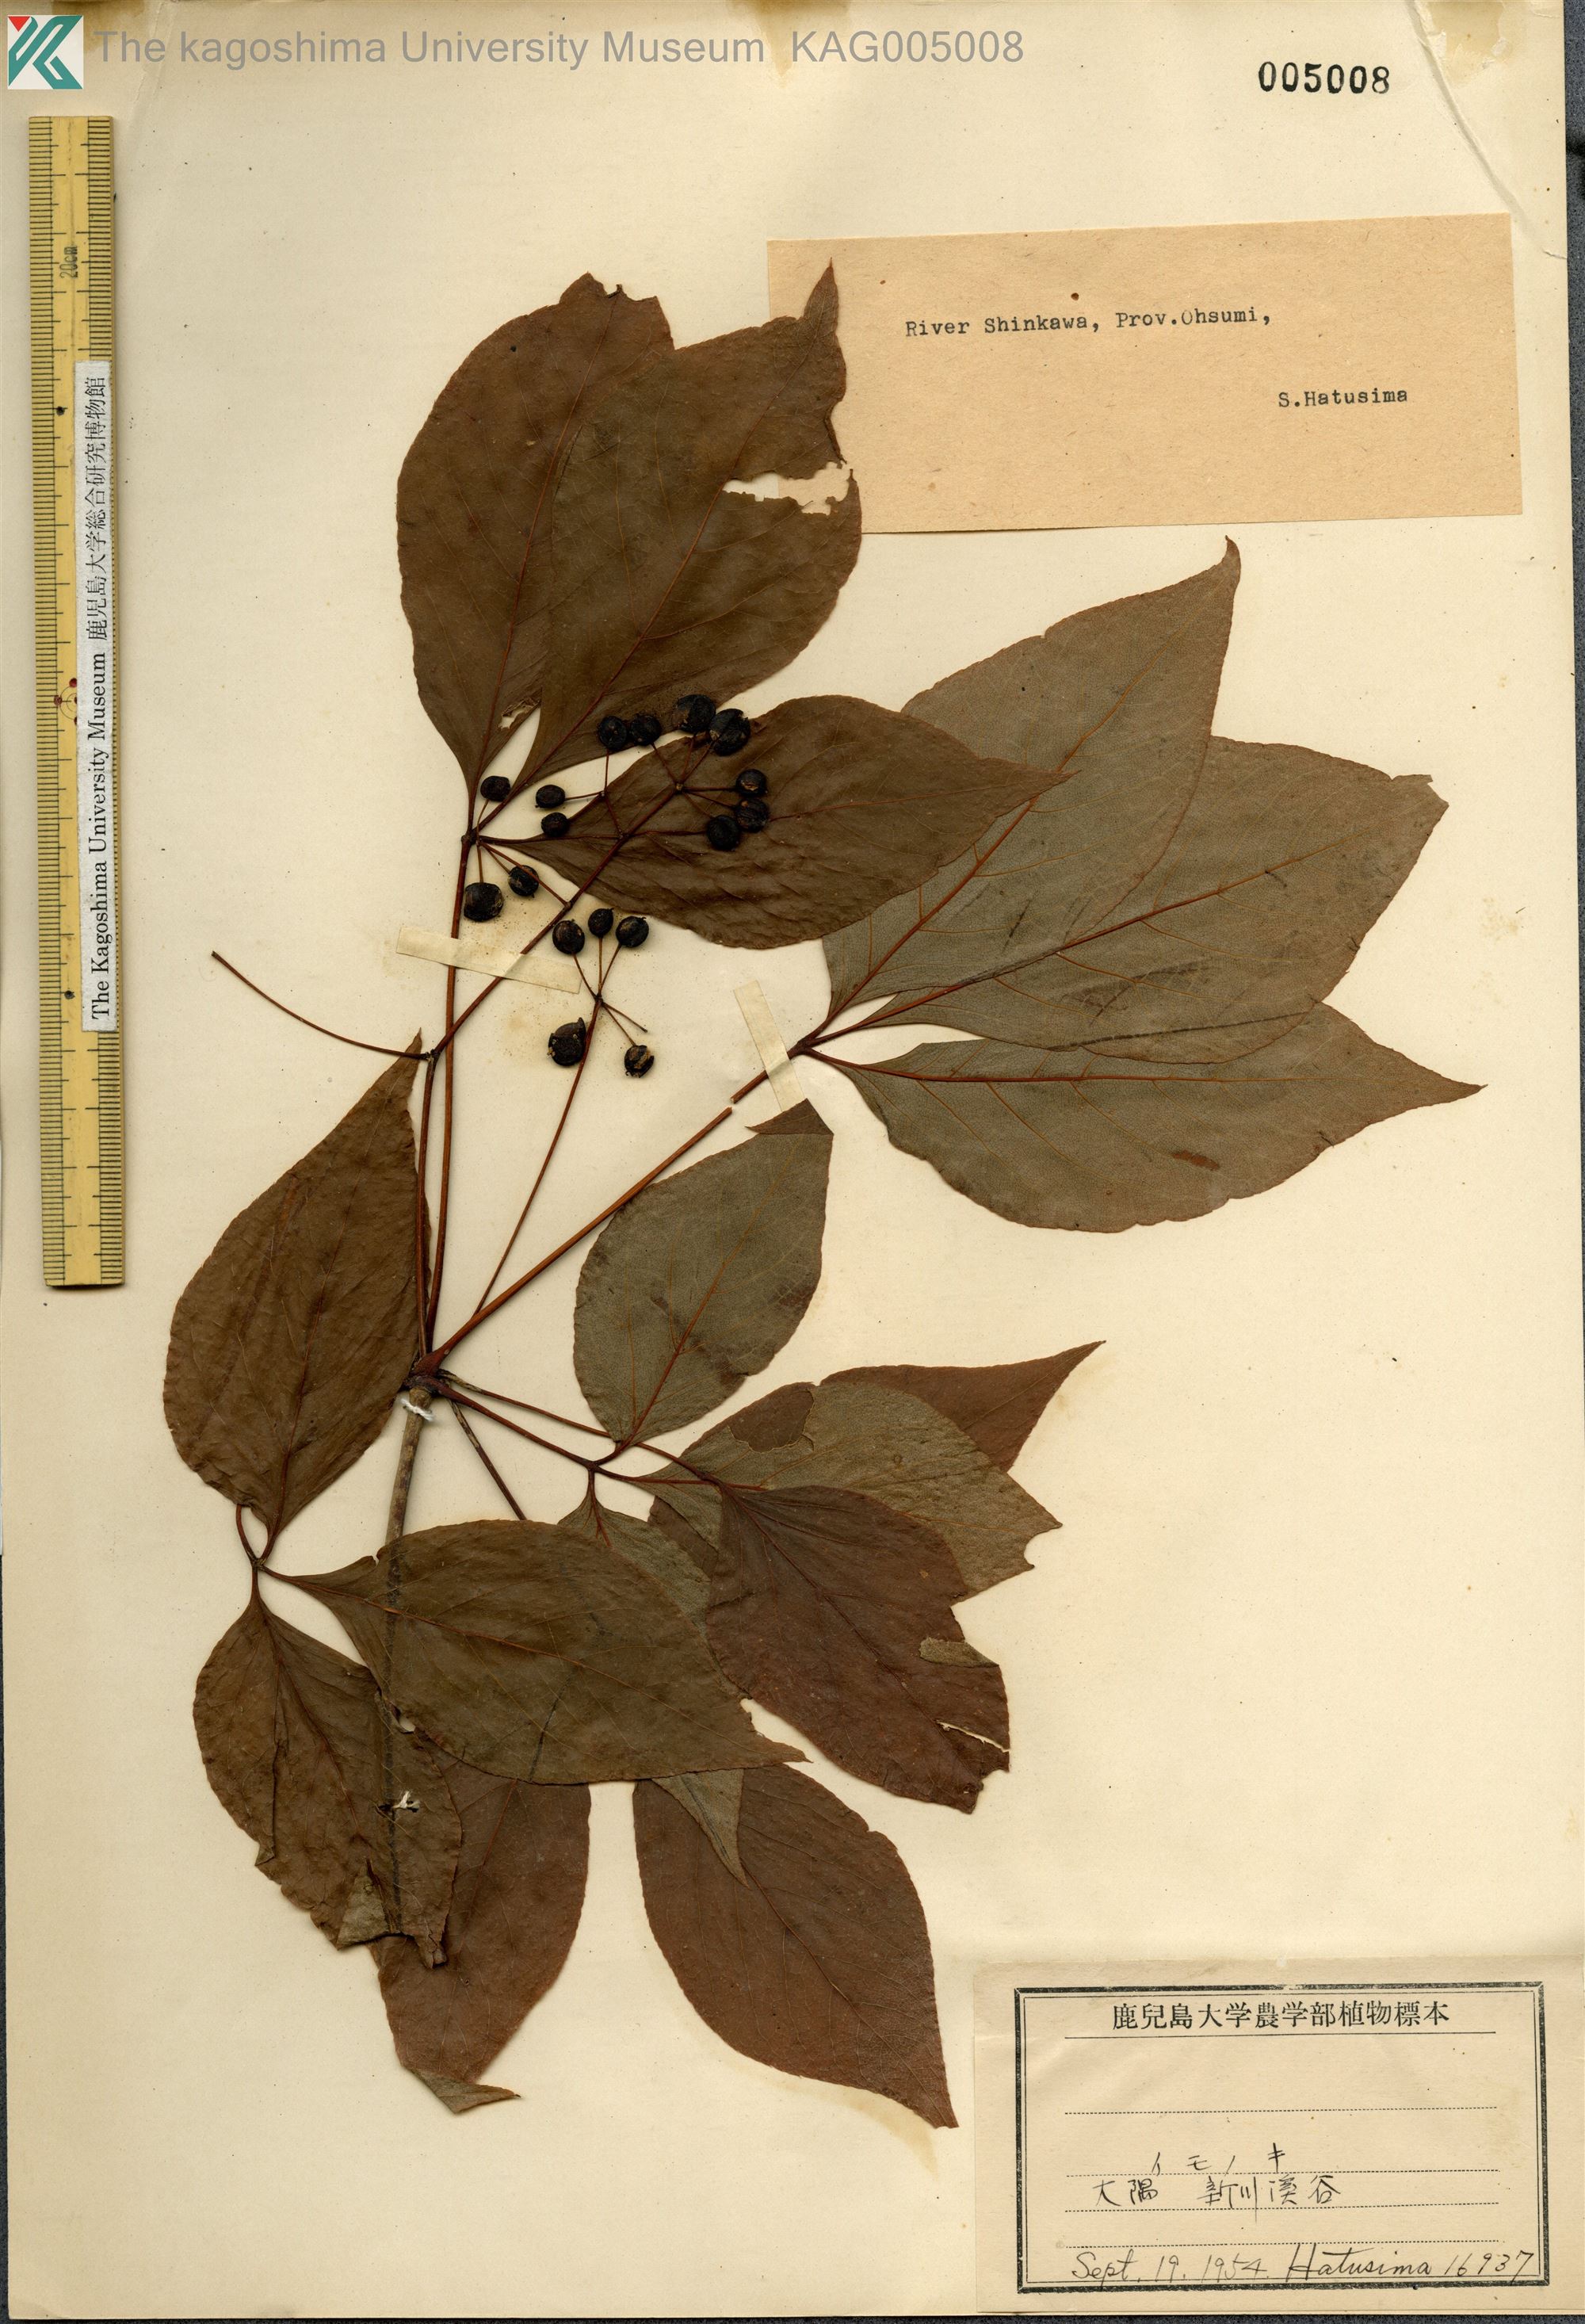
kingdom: Plantae
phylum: Tracheophyta
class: Magnoliopsida
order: Apiales
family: Araliaceae
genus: Gamblea
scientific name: Gamblea innovans
